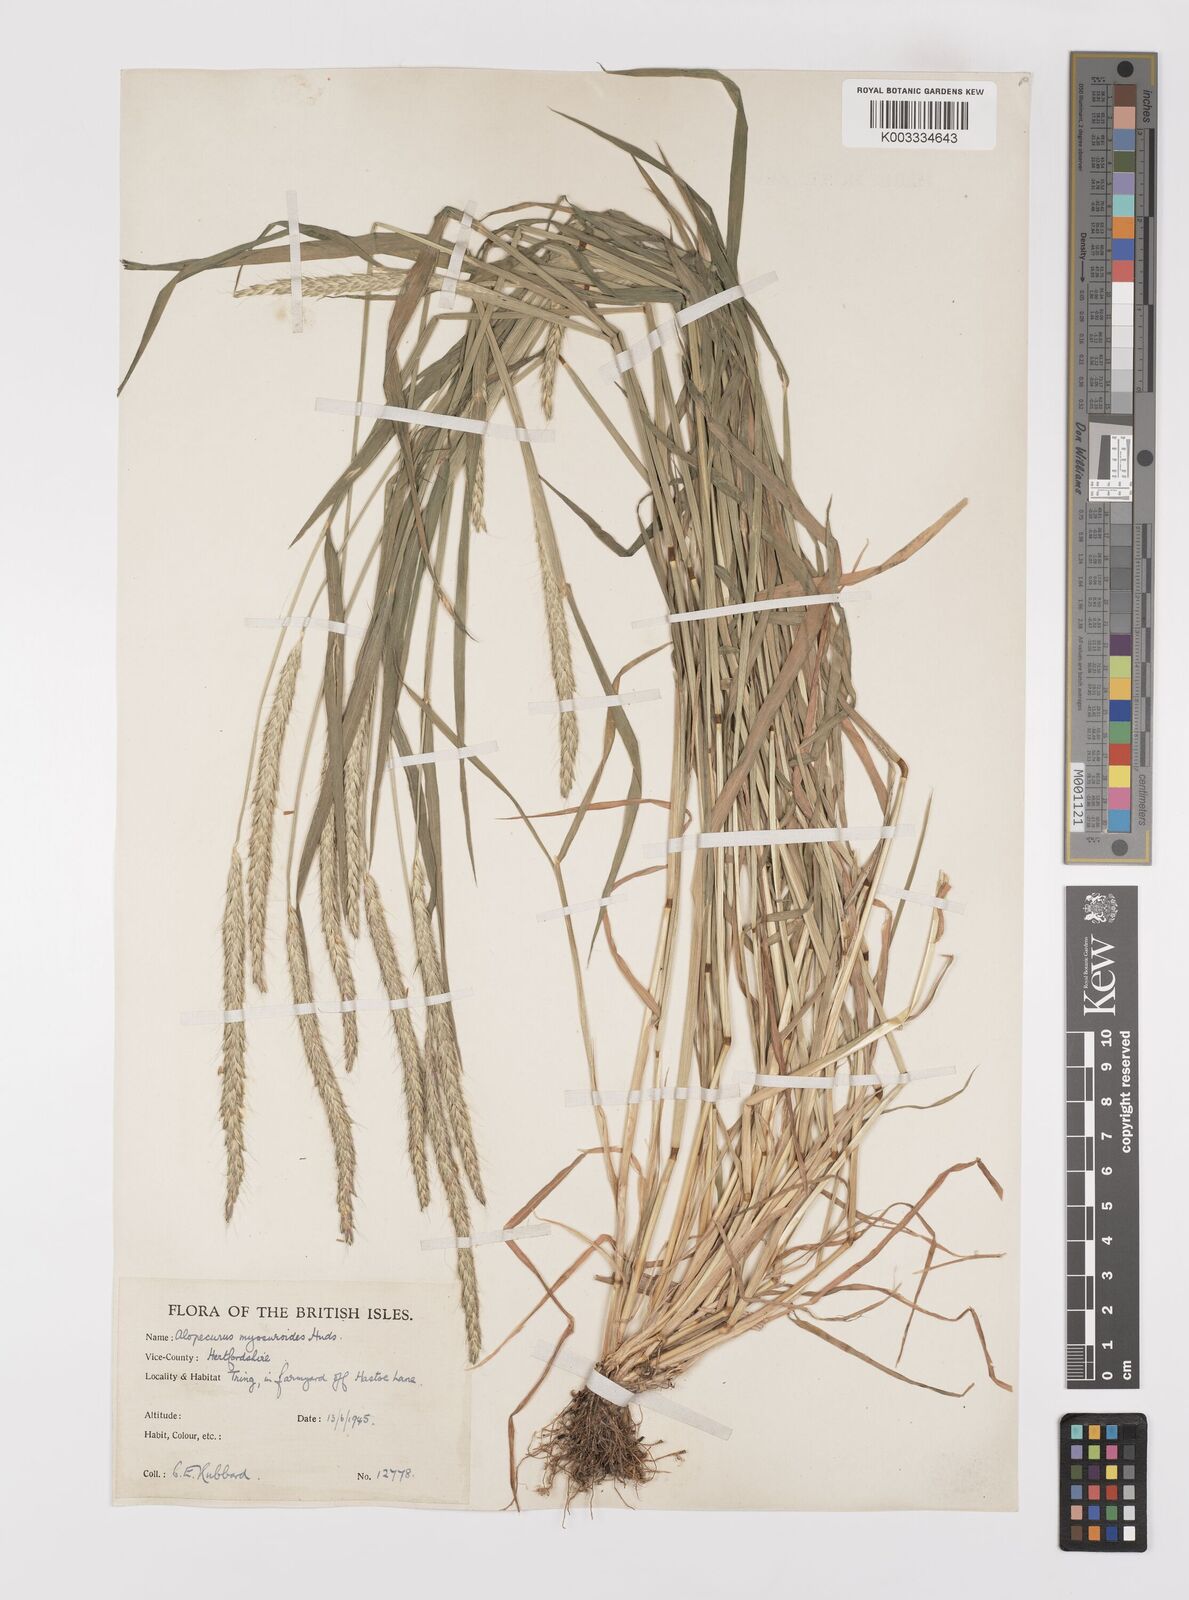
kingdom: Plantae
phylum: Tracheophyta
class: Liliopsida
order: Poales
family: Poaceae
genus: Alopecurus
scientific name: Alopecurus myosuroides
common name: Black-grass
